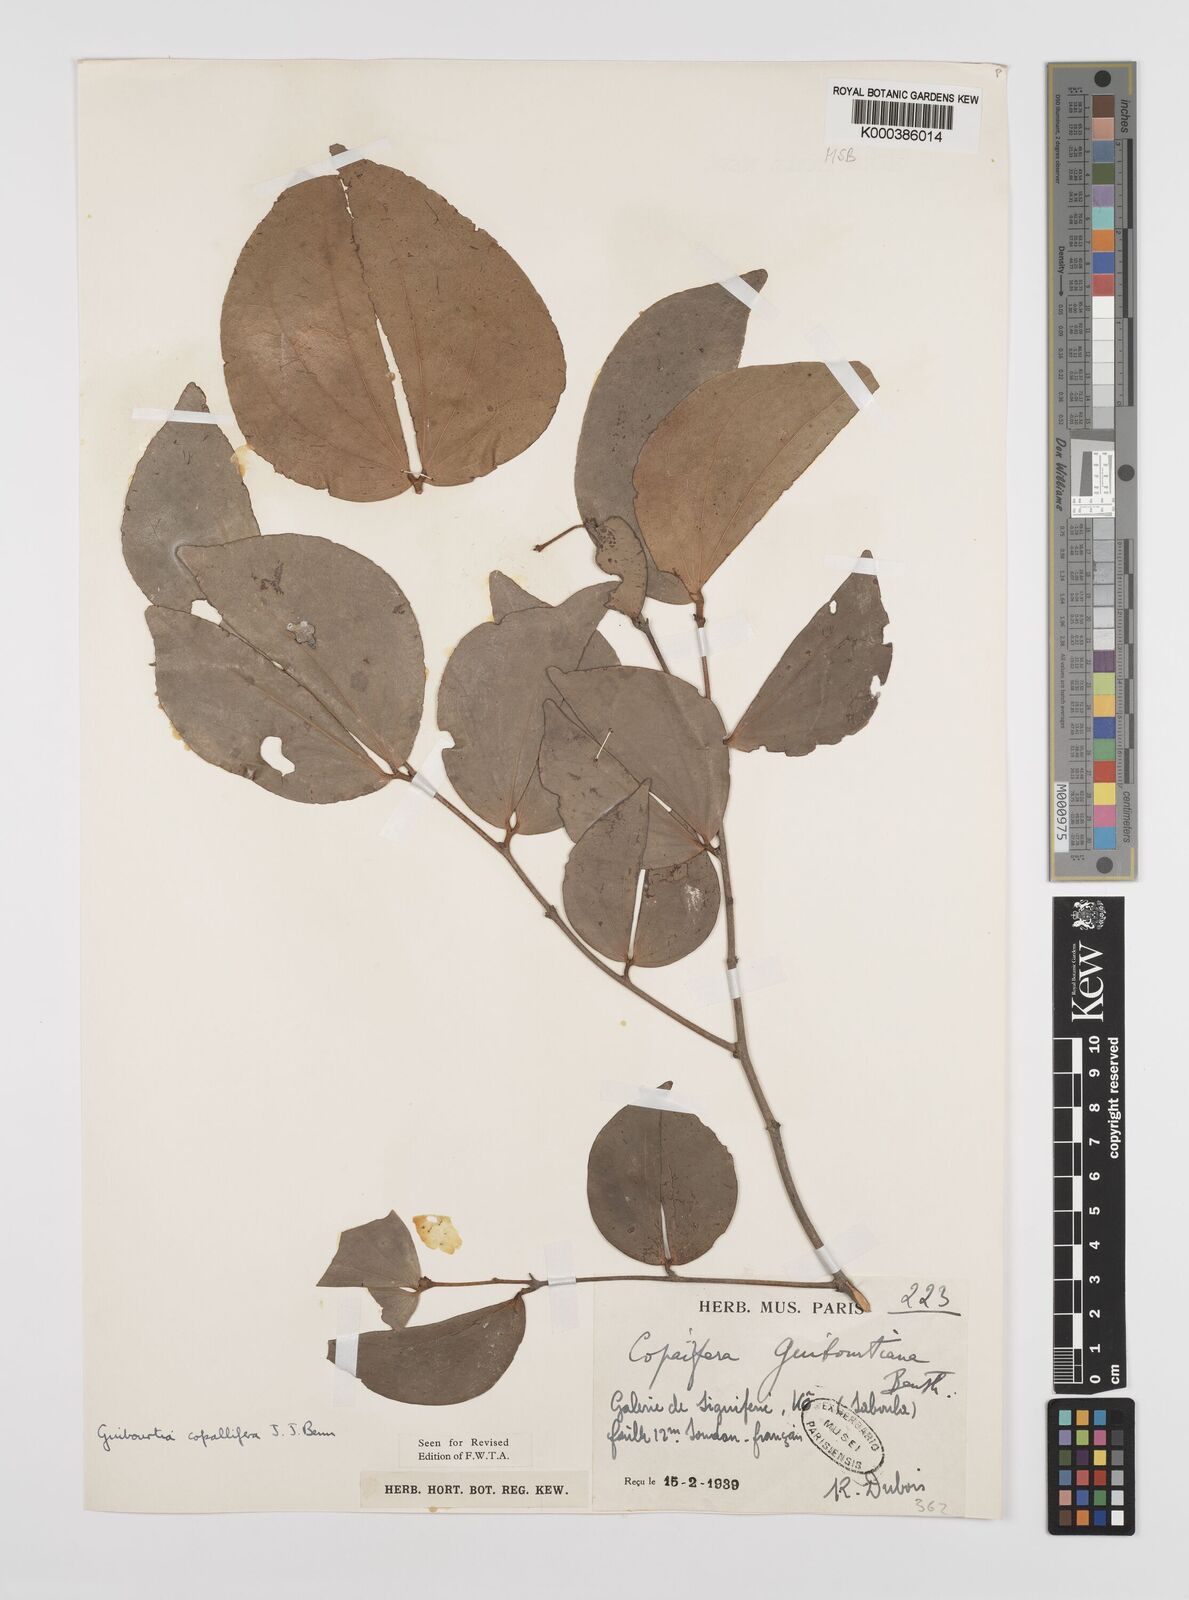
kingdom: Plantae
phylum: Tracheophyta
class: Magnoliopsida
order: Fabales
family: Fabaceae
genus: Guibourtia
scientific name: Guibourtia copallifera
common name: Kobo tree
